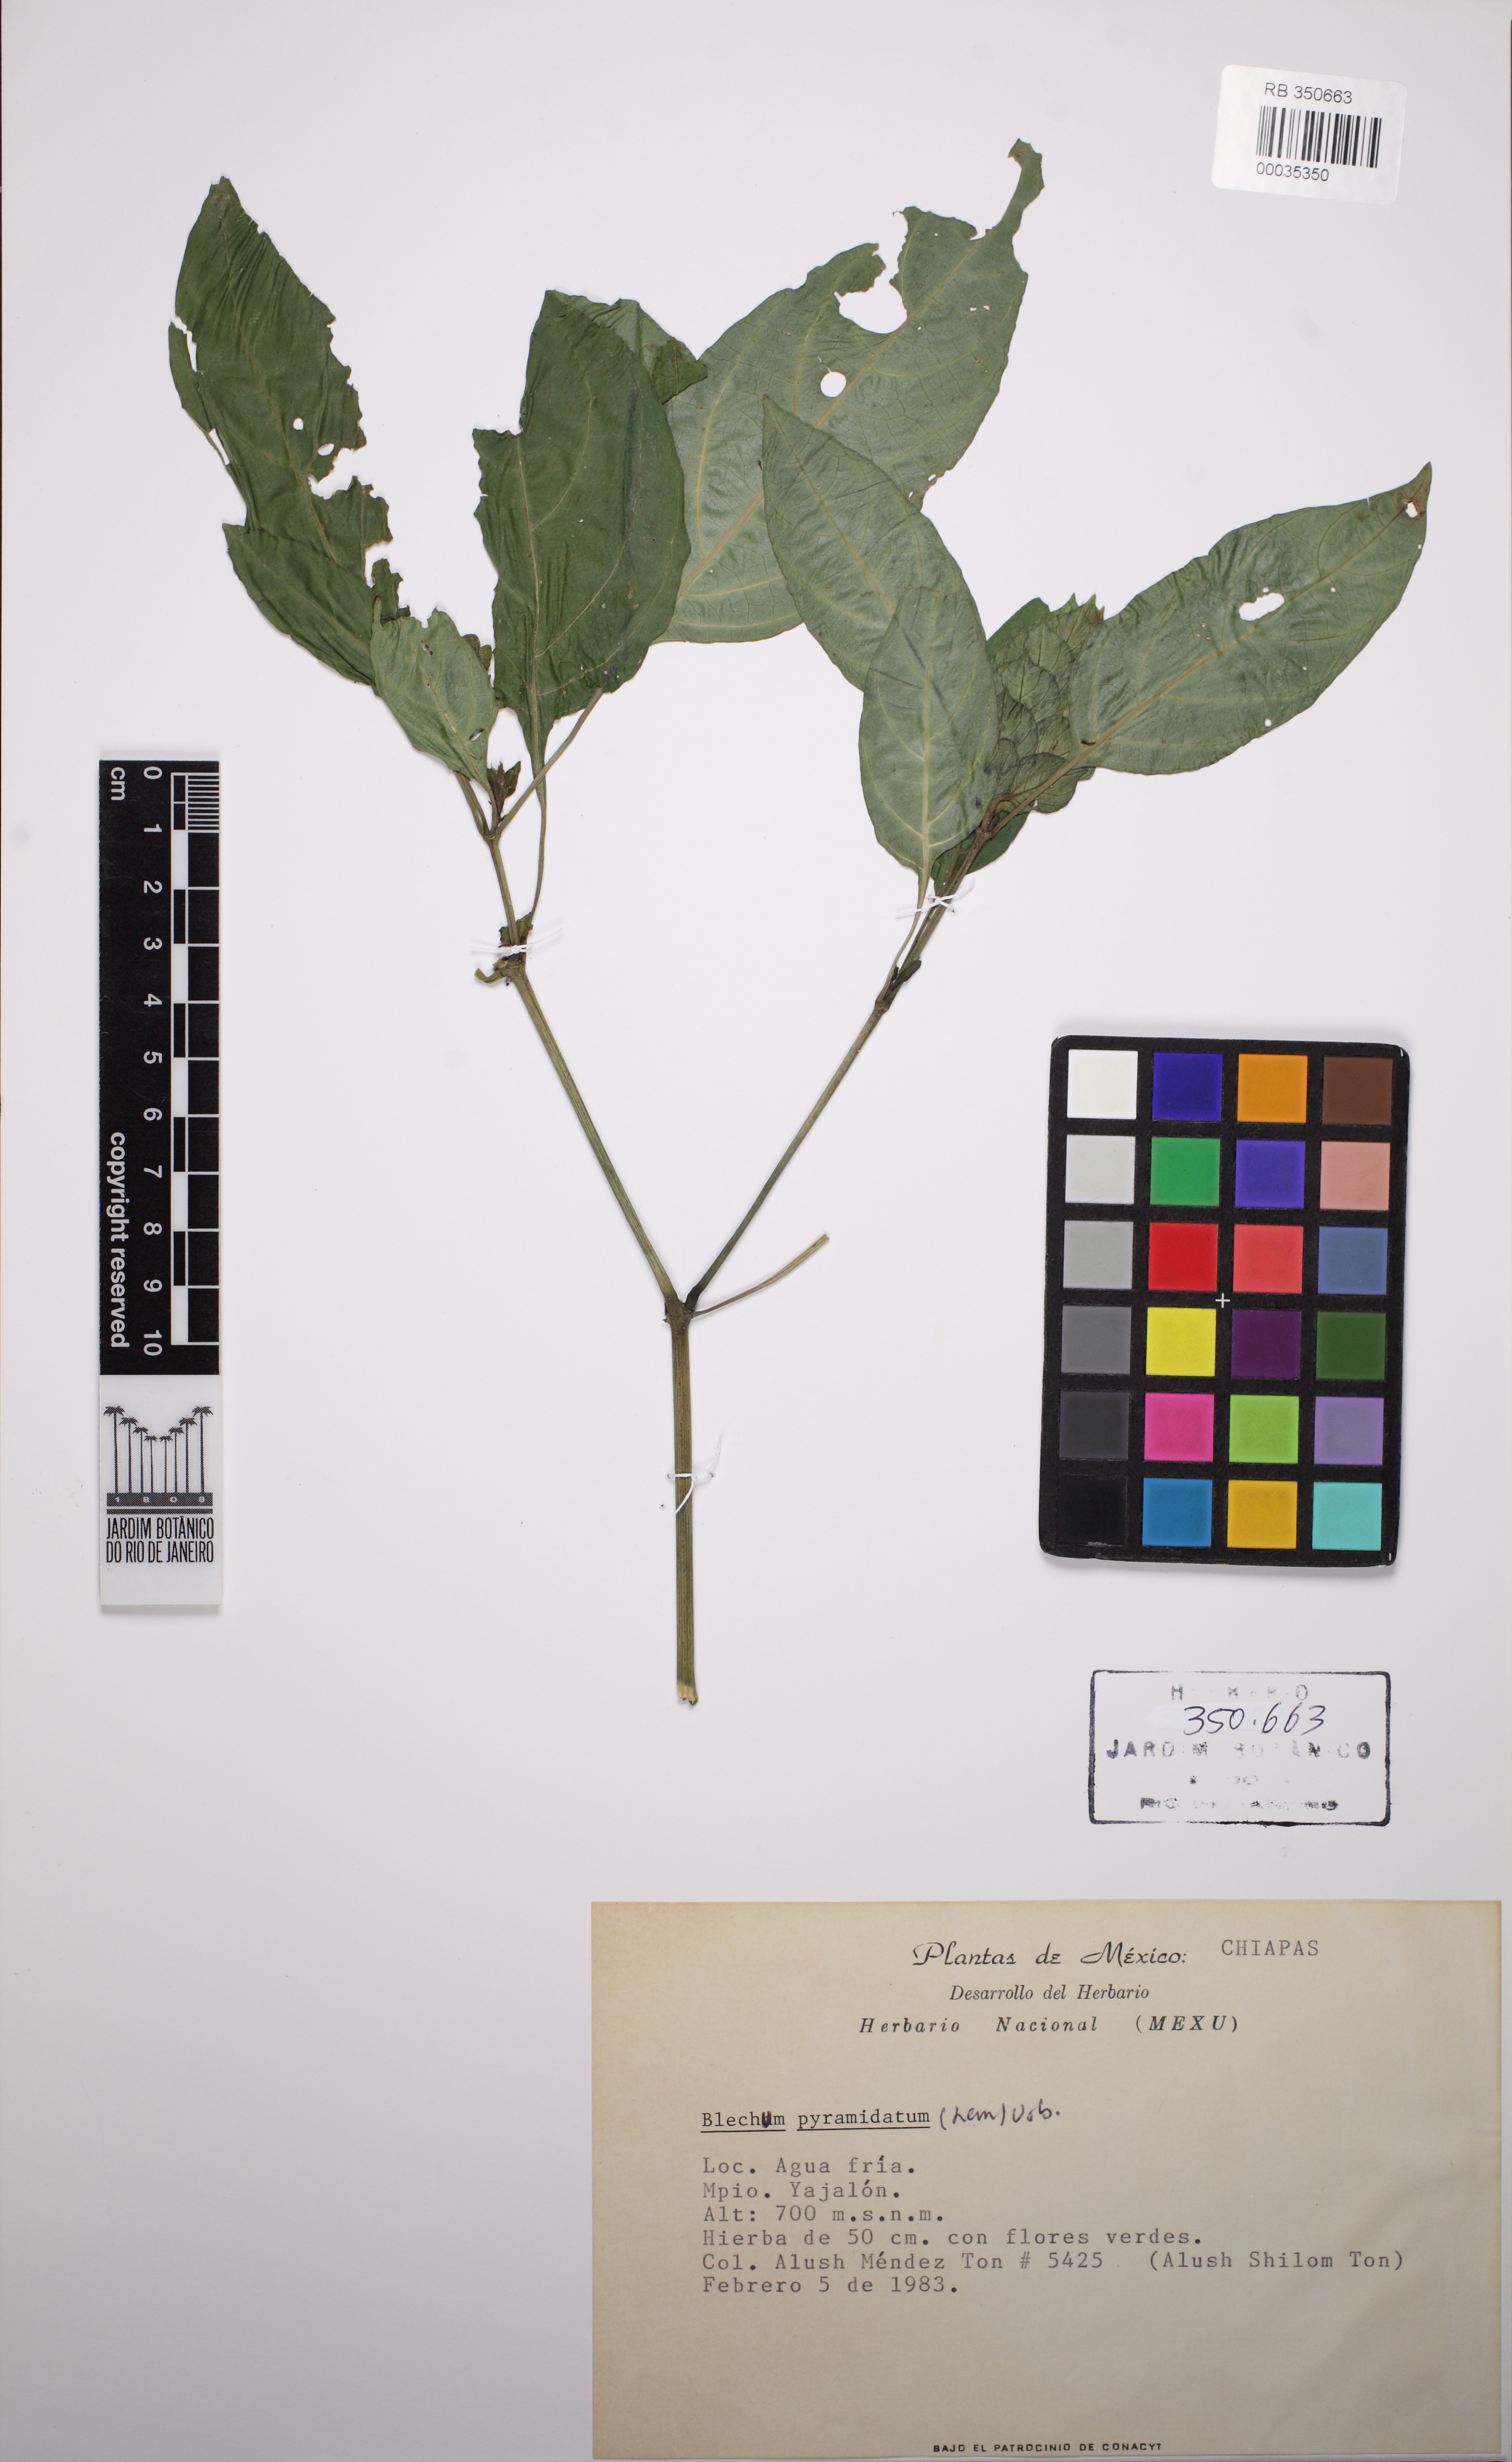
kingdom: Plantae
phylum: Tracheophyta
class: Magnoliopsida
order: Lamiales
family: Acanthaceae
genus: Tetramerium
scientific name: Tetramerium
